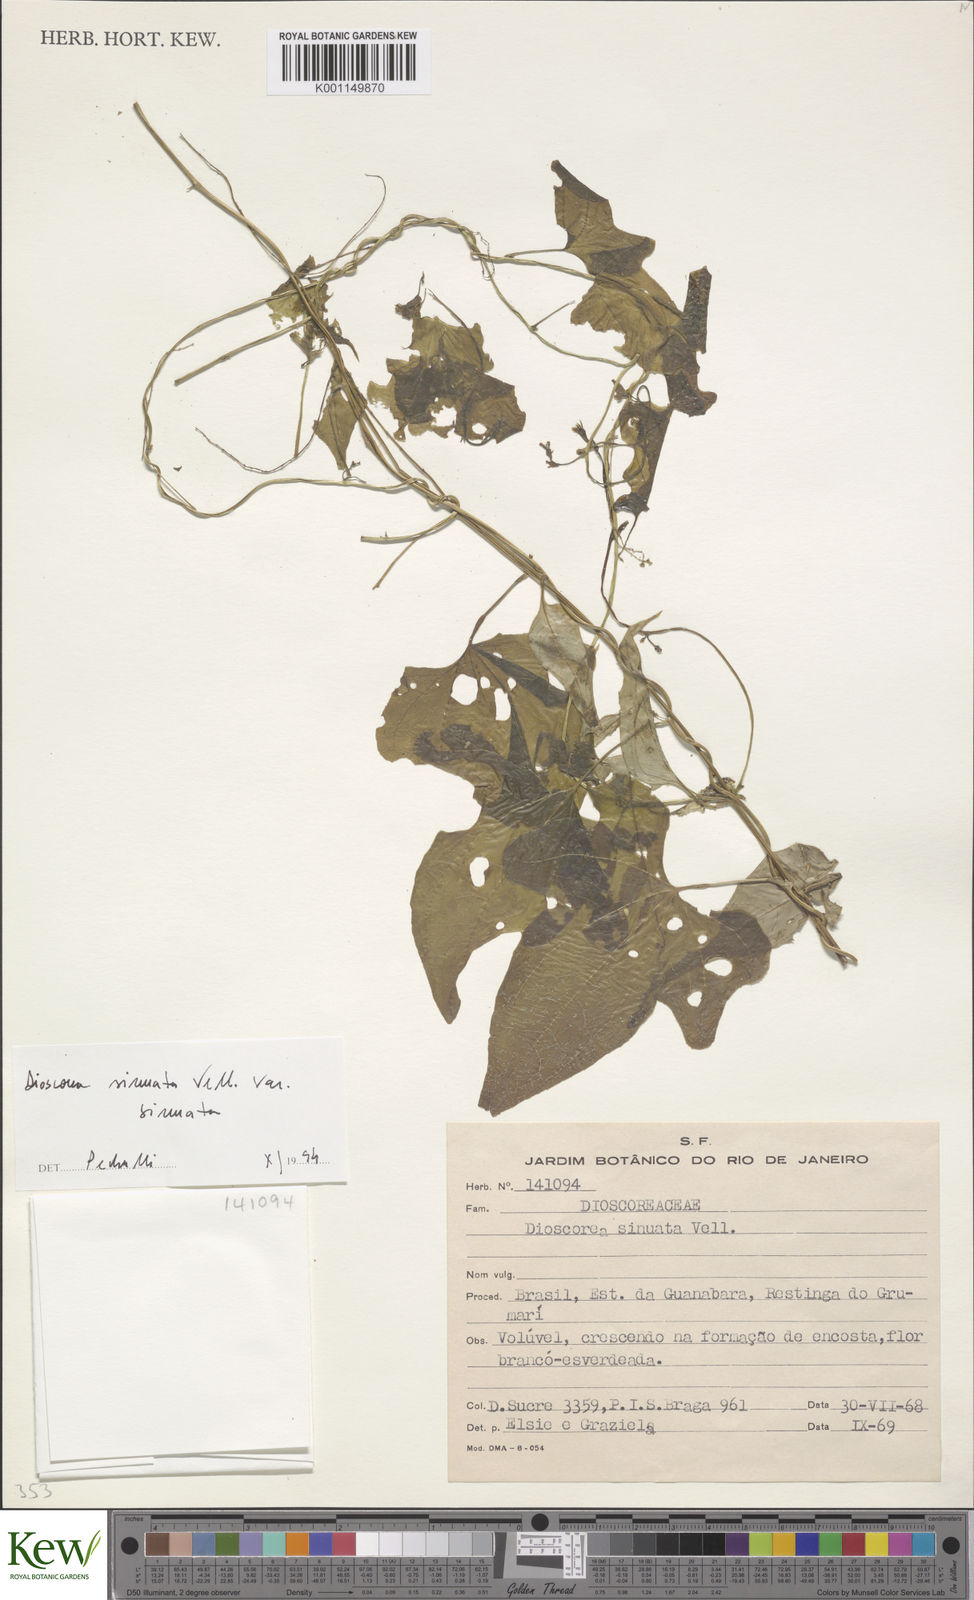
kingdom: Plantae
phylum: Tracheophyta
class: Liliopsida
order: Dioscoreales
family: Dioscoreaceae
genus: Dioscorea
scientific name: Dioscorea sinuata
